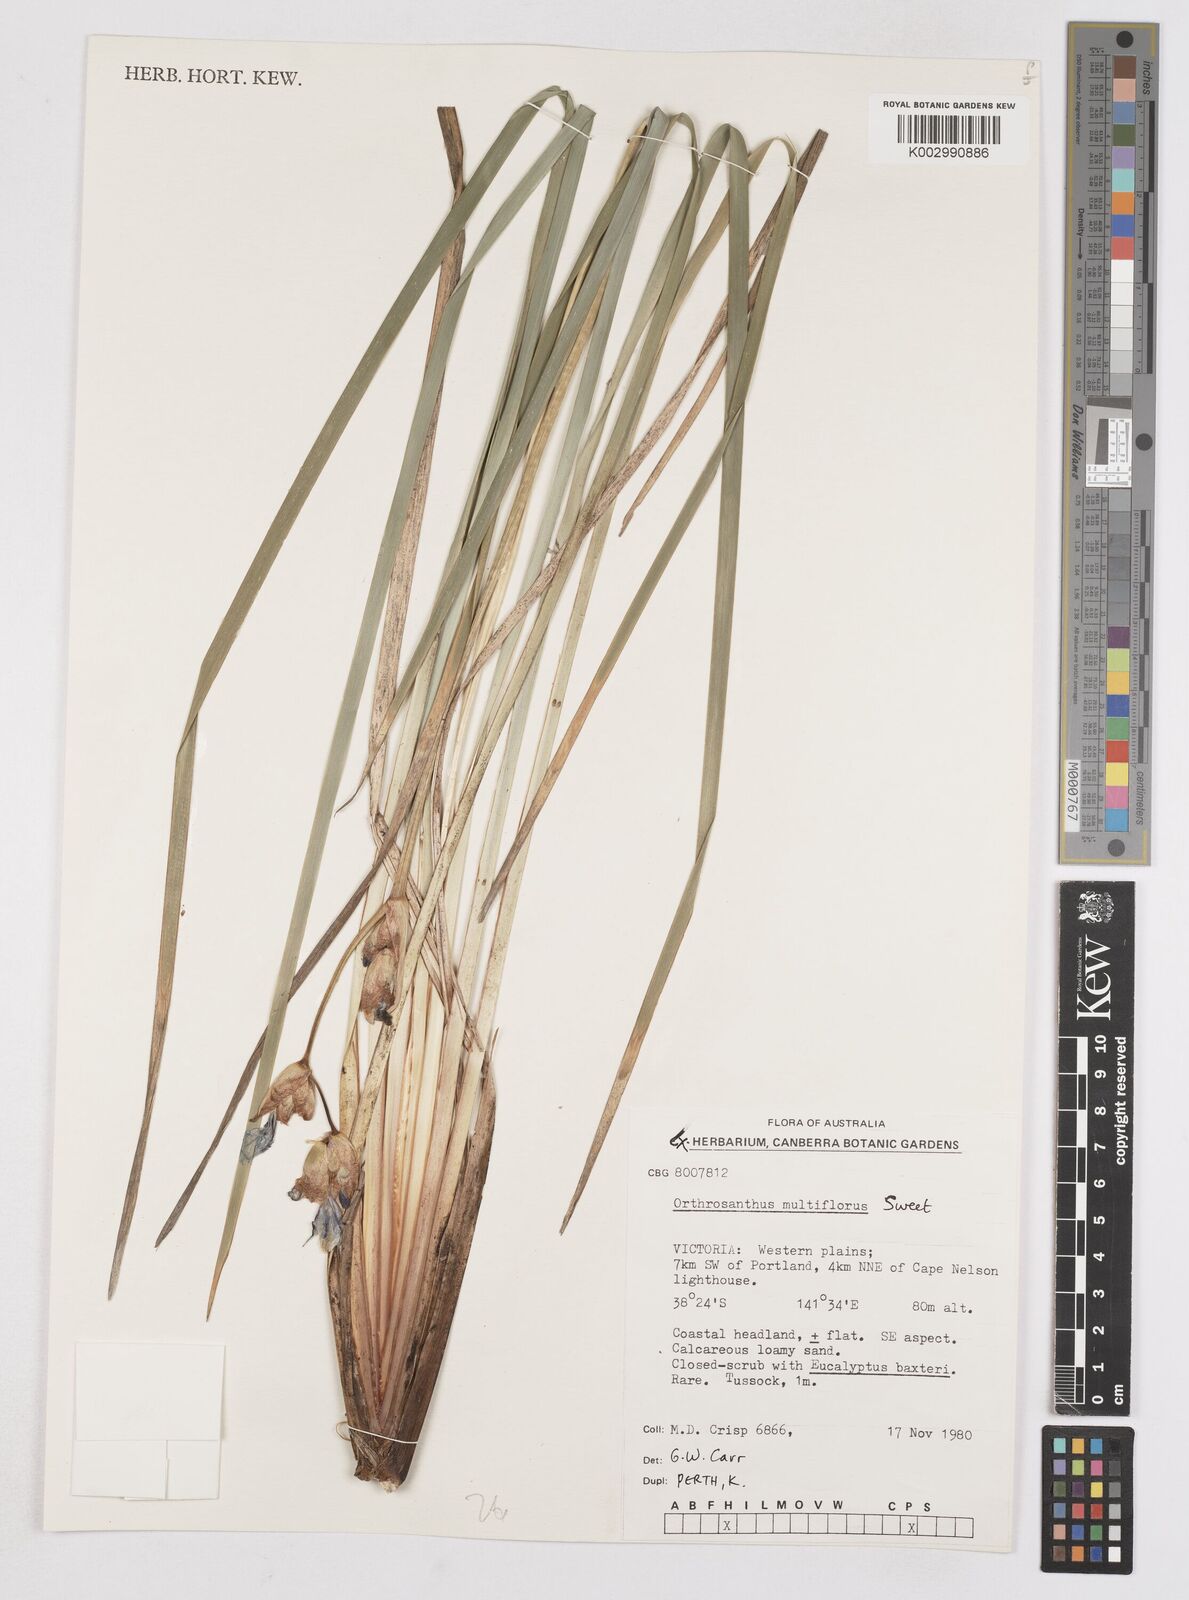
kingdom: Plantae
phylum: Tracheophyta
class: Liliopsida
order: Asparagales
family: Iridaceae
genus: Orthrosanthus
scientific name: Orthrosanthus multiflorus
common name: Morning-flag
